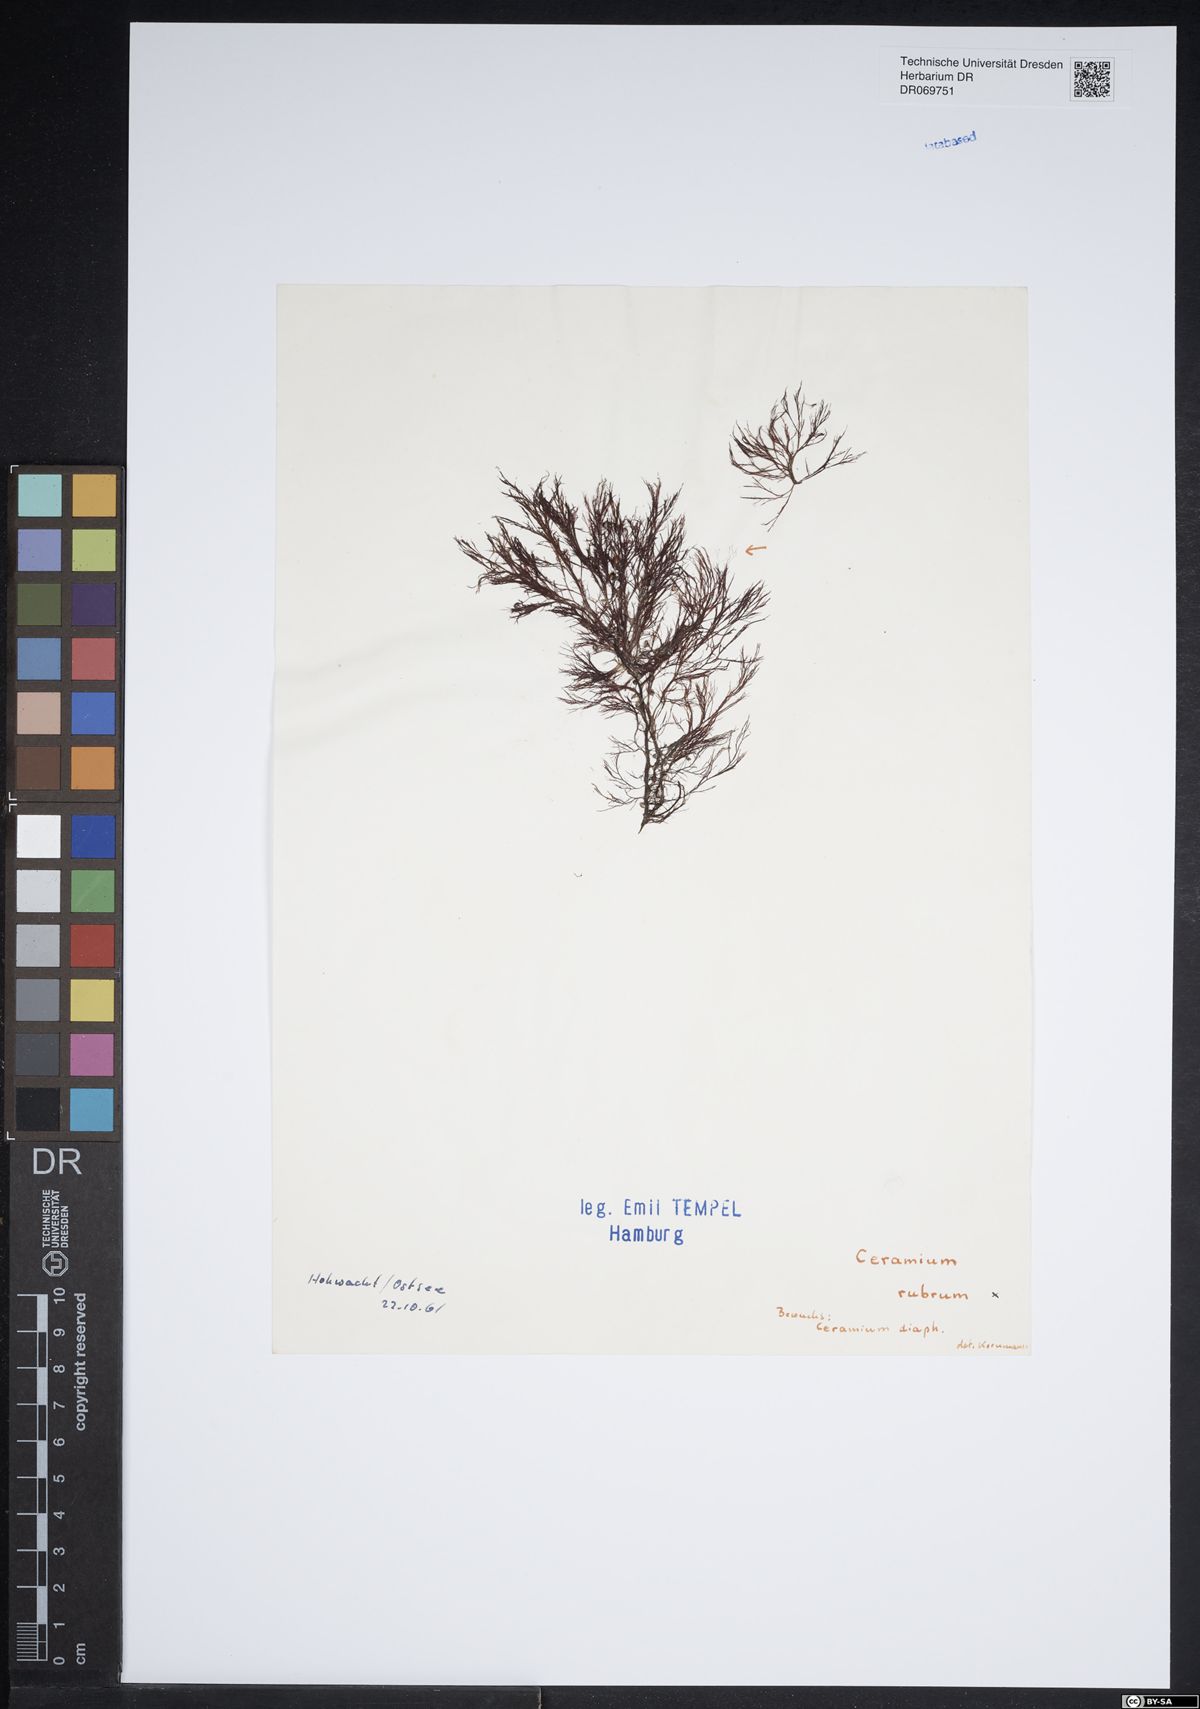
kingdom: Plantae
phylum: Rhodophyta
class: Florideophyceae
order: Ceramiales
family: Ceramiaceae
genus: Ceramium
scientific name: Ceramium virgatum
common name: Red hornweed
